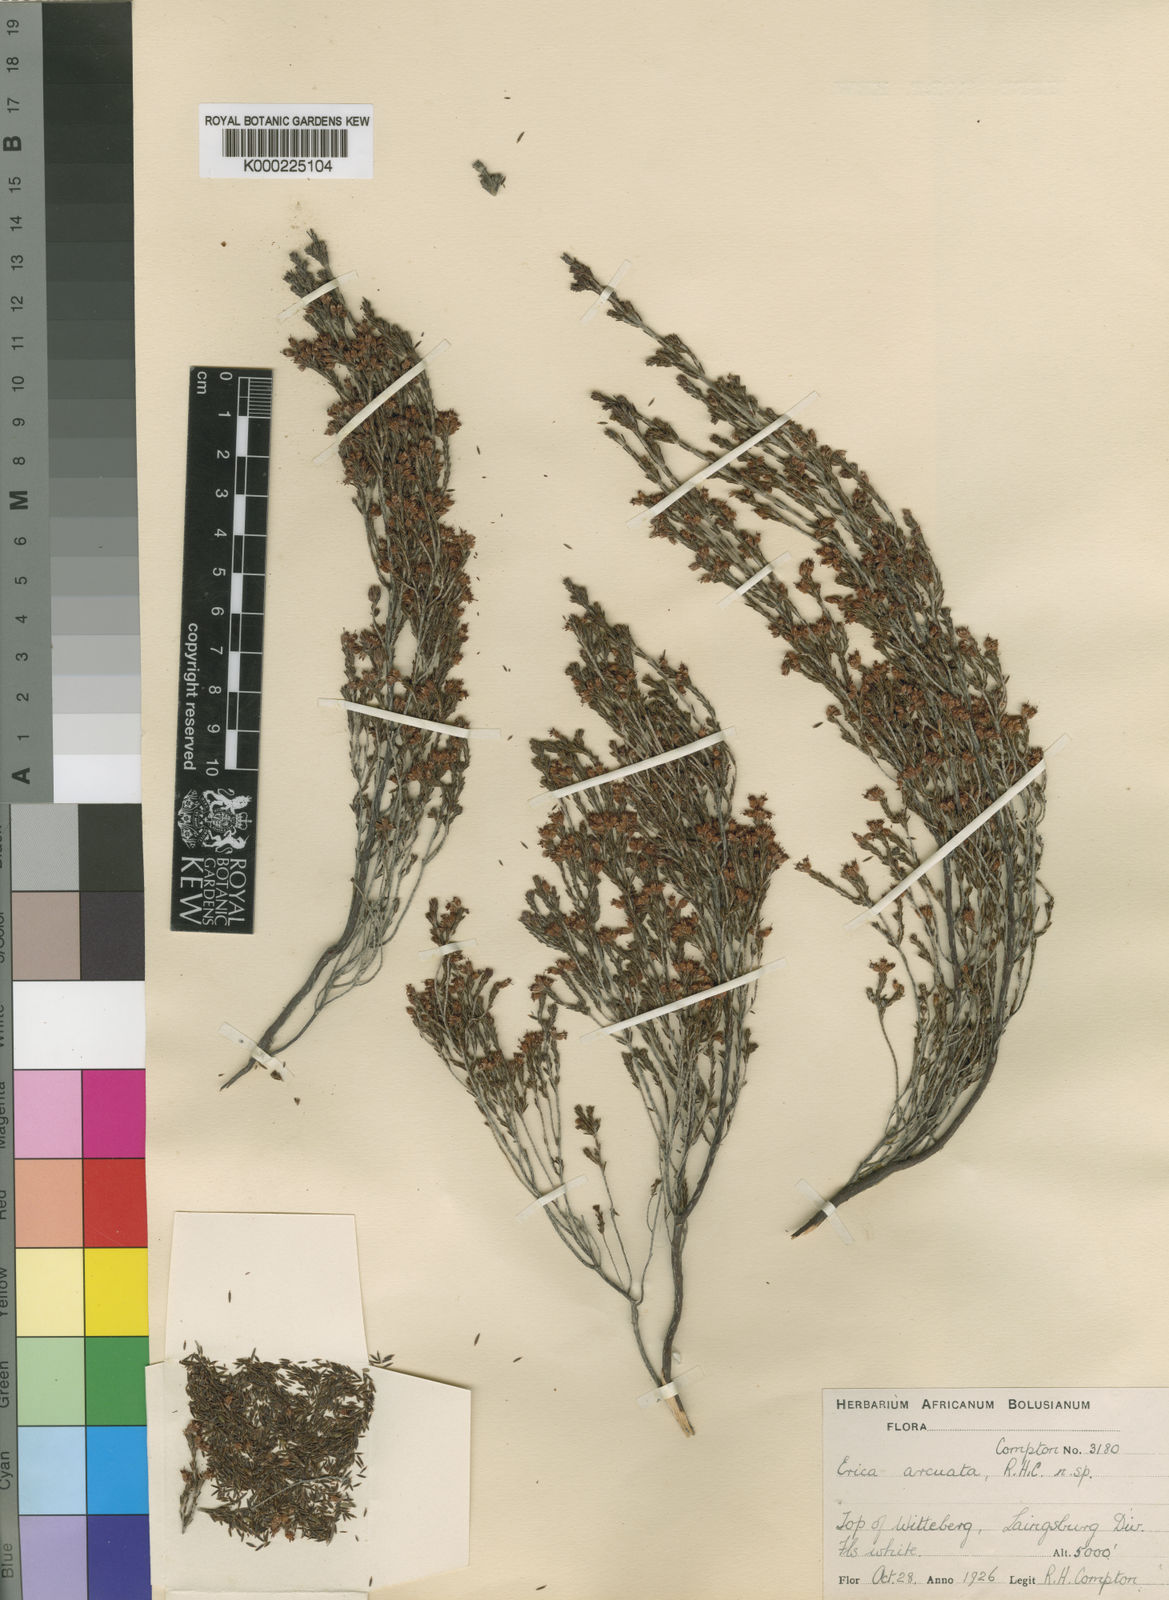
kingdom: Plantae
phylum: Tracheophyta
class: Magnoliopsida
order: Ericales
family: Ericaceae
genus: Erica
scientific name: Erica arcuata
